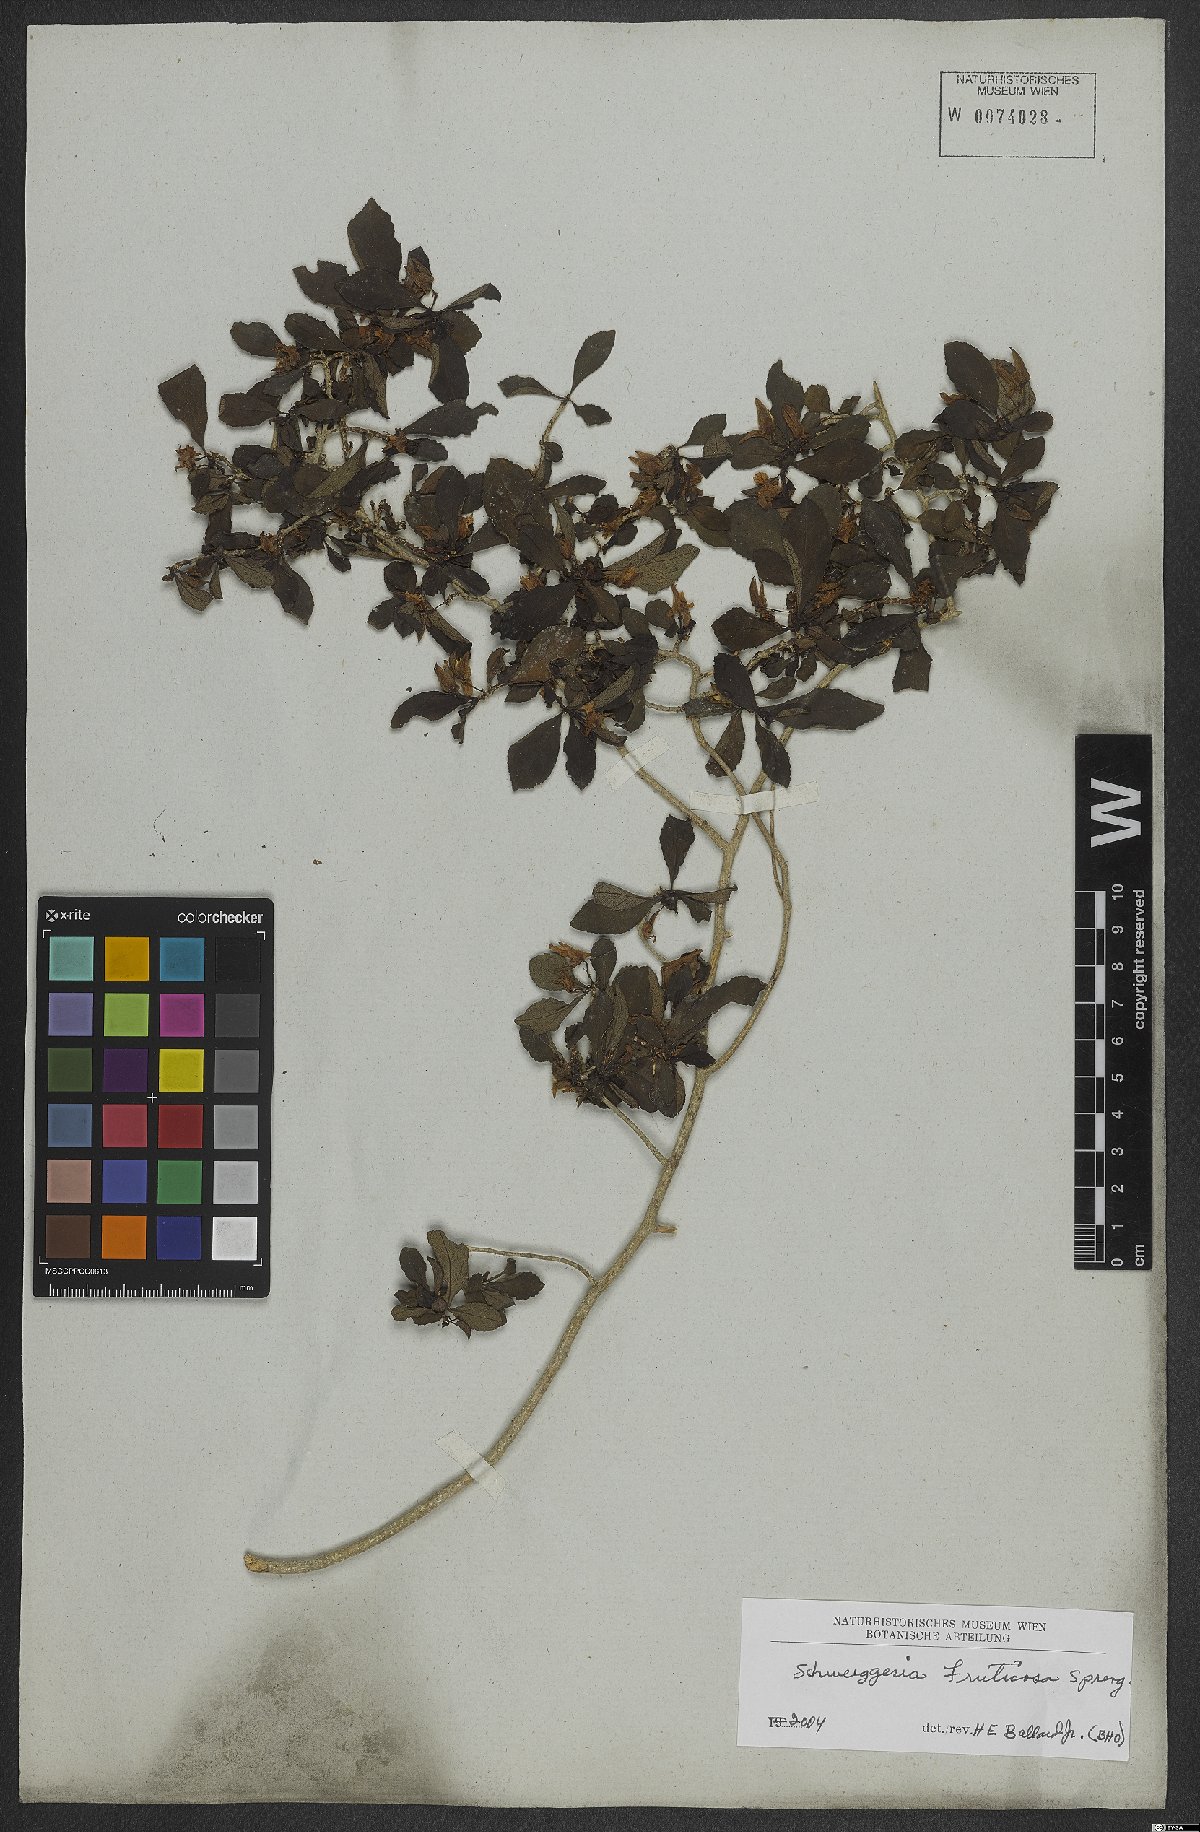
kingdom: Plantae
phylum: Tracheophyta
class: Magnoliopsida
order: Malpighiales
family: Violaceae
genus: Schweiggeria
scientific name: Schweiggeria fruticosa
